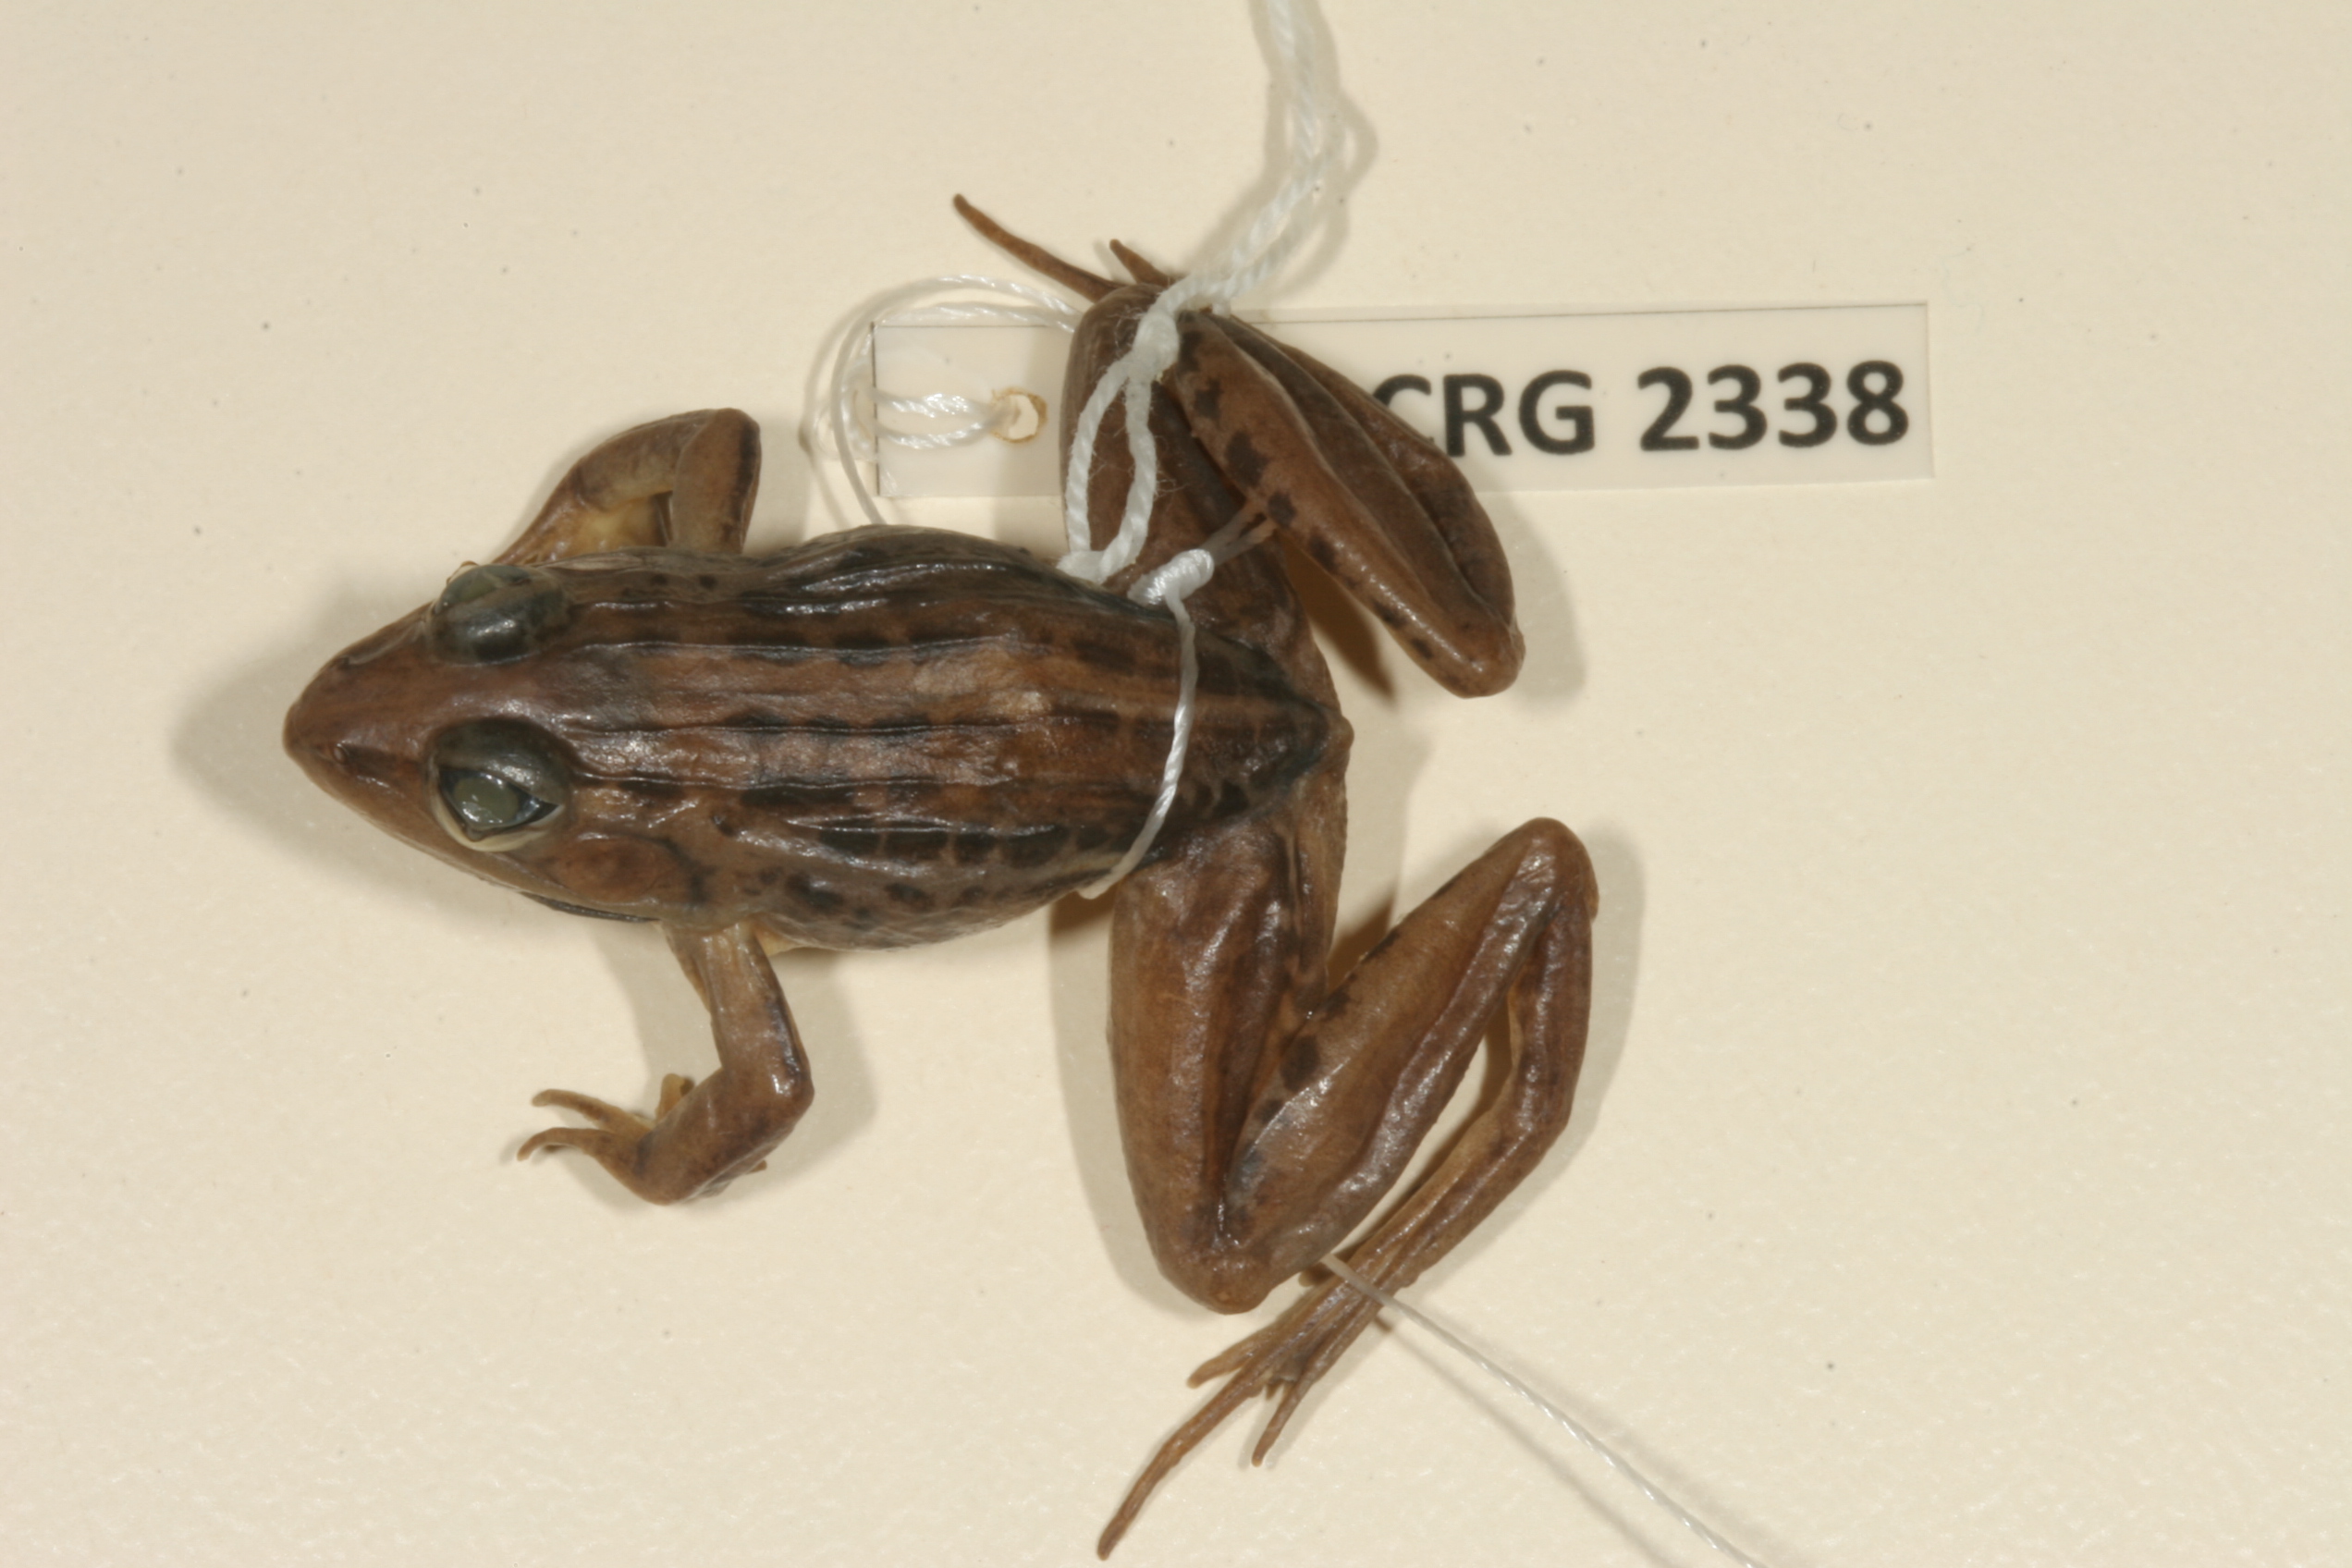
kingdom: Animalia
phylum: Chordata
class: Amphibia
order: Anura
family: Ptychadenidae
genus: Ptychadena
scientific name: Ptychadena mascareniensis
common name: Mascarene grass frog
